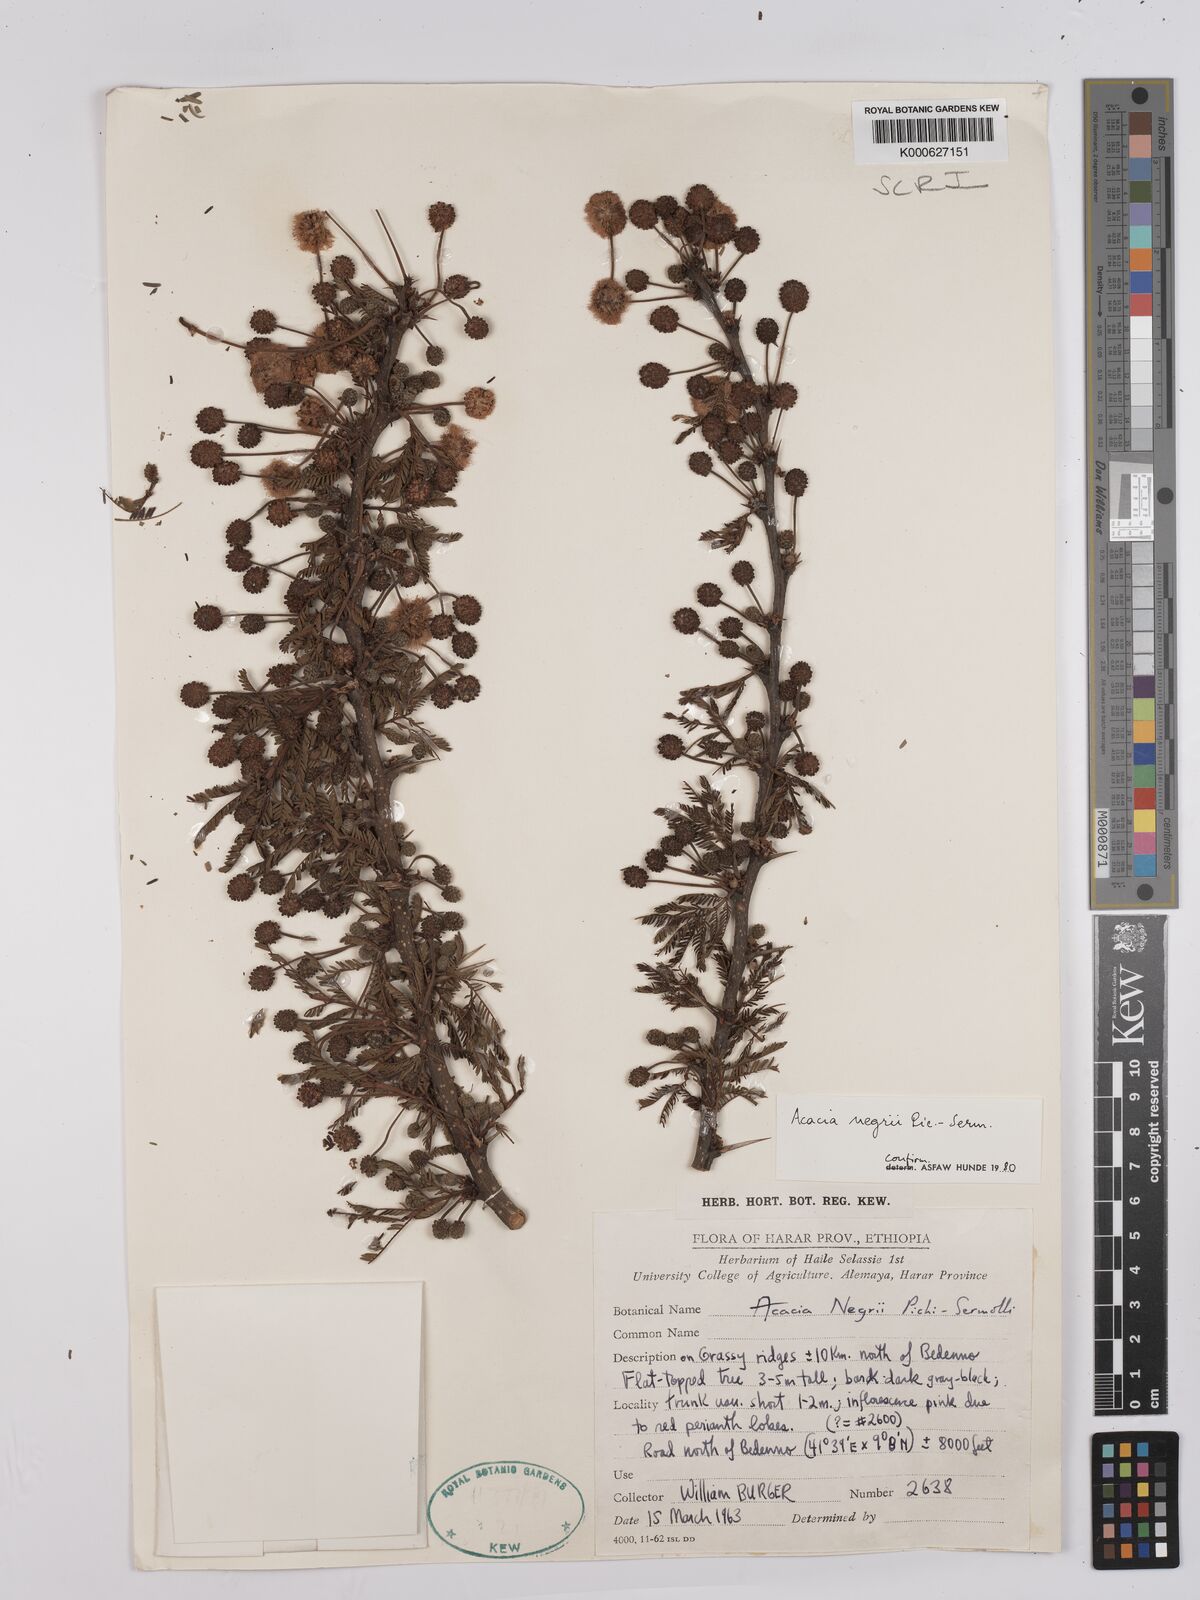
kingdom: Plantae
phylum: Tracheophyta
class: Magnoliopsida
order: Fabales
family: Fabaceae
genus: Vachellia
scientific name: Vachellia negrii
